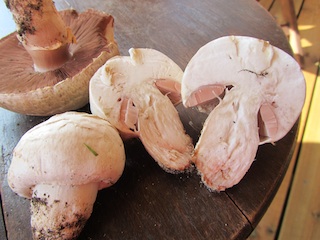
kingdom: Fungi
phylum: Basidiomycota
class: Agaricomycetes
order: Agaricales
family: Agaricaceae
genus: Agaricus
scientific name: Agaricus litoralis
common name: kyst-champignon
